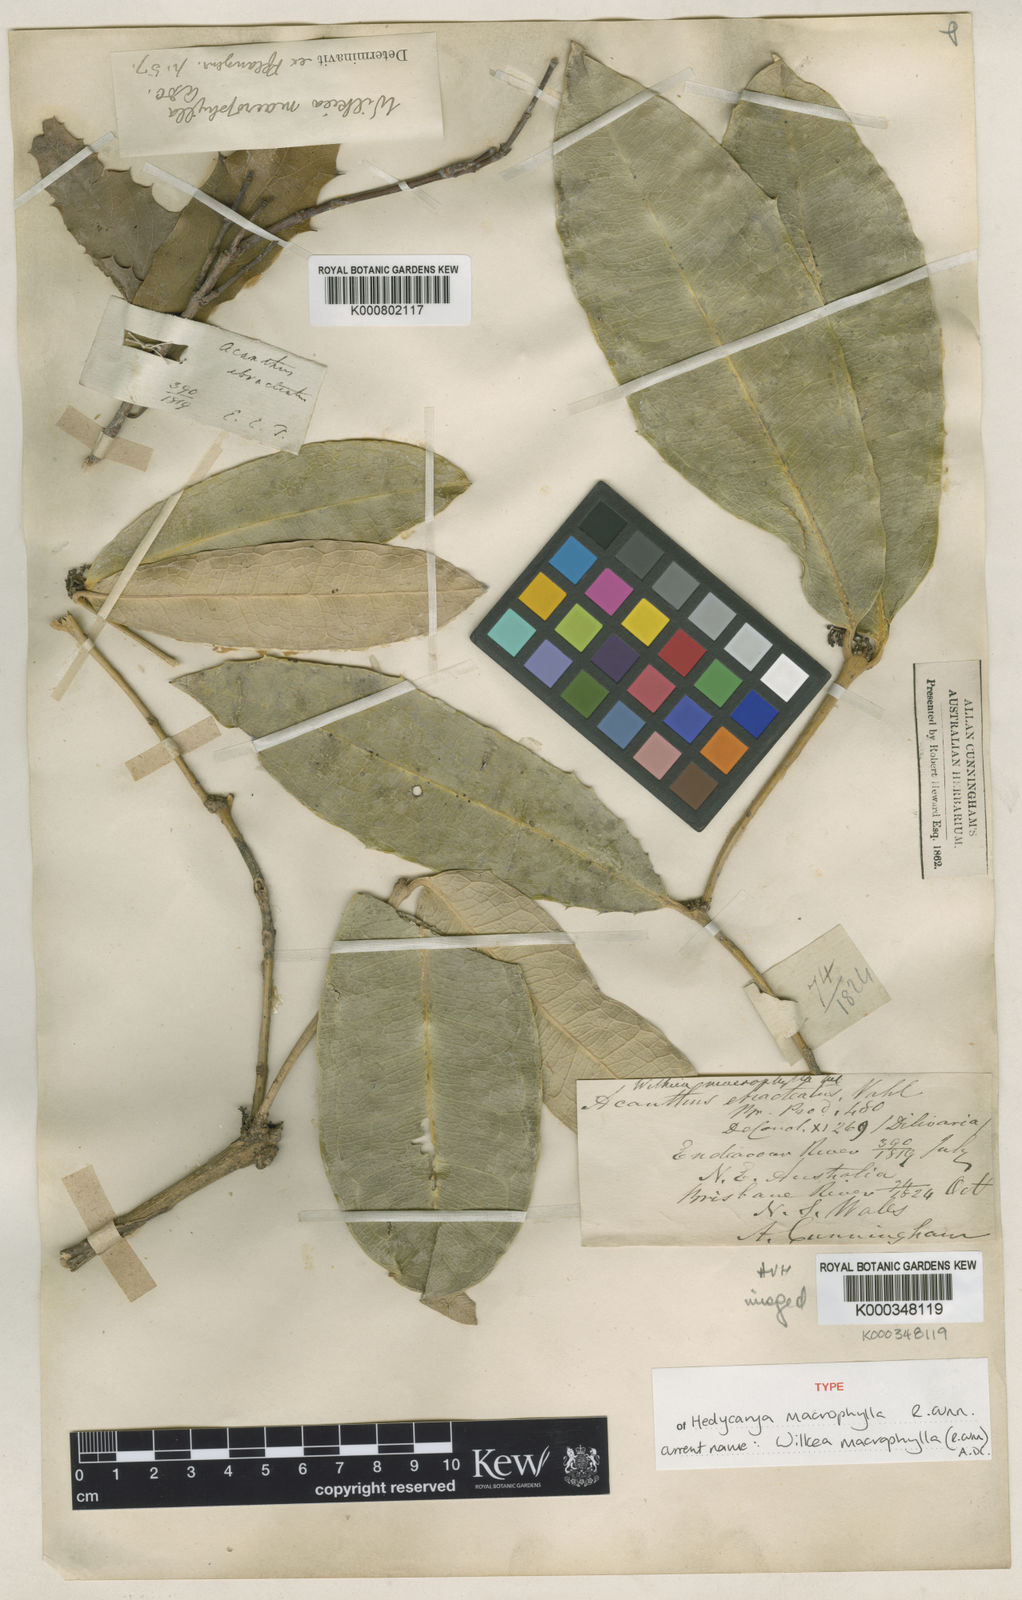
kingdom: Plantae
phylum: Tracheophyta
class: Magnoliopsida
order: Laurales
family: Monimiaceae
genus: Wilkiea
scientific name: Wilkiea macrophylla
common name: Large-leaved wilkiea
